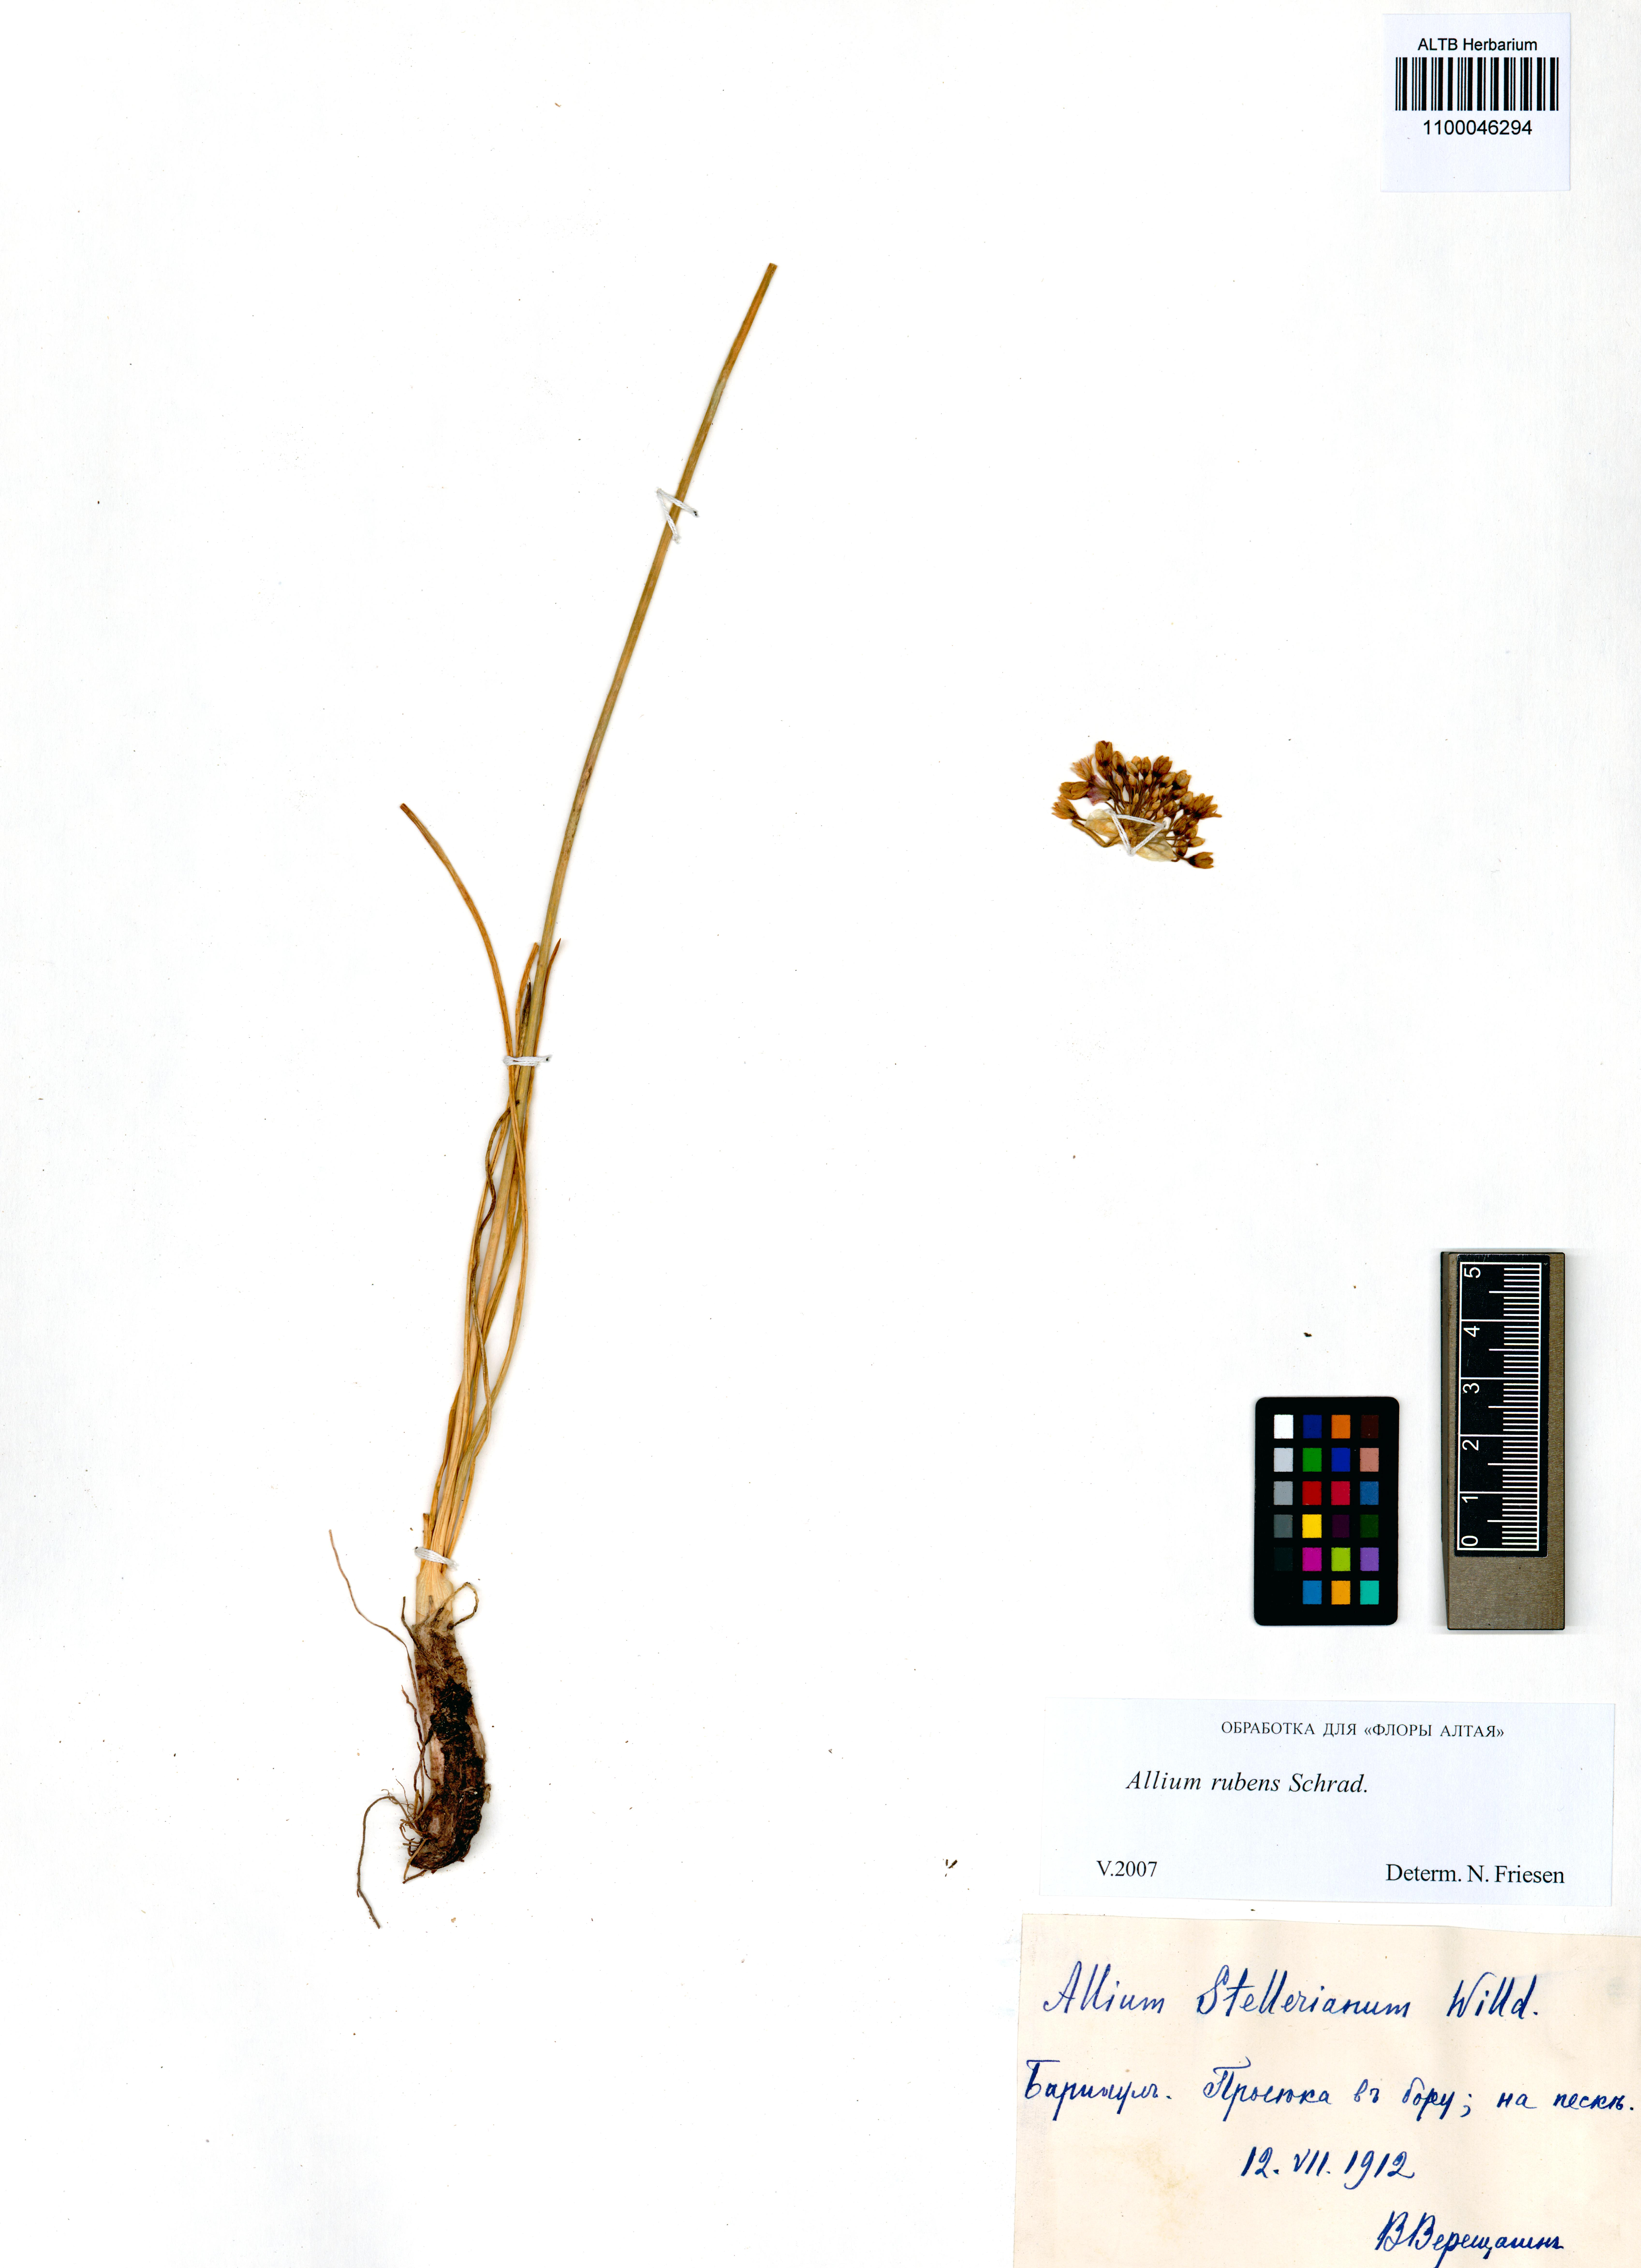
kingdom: Plantae
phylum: Tracheophyta
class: Liliopsida
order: Asparagales
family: Amaryllidaceae
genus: Allium
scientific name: Allium rubens
